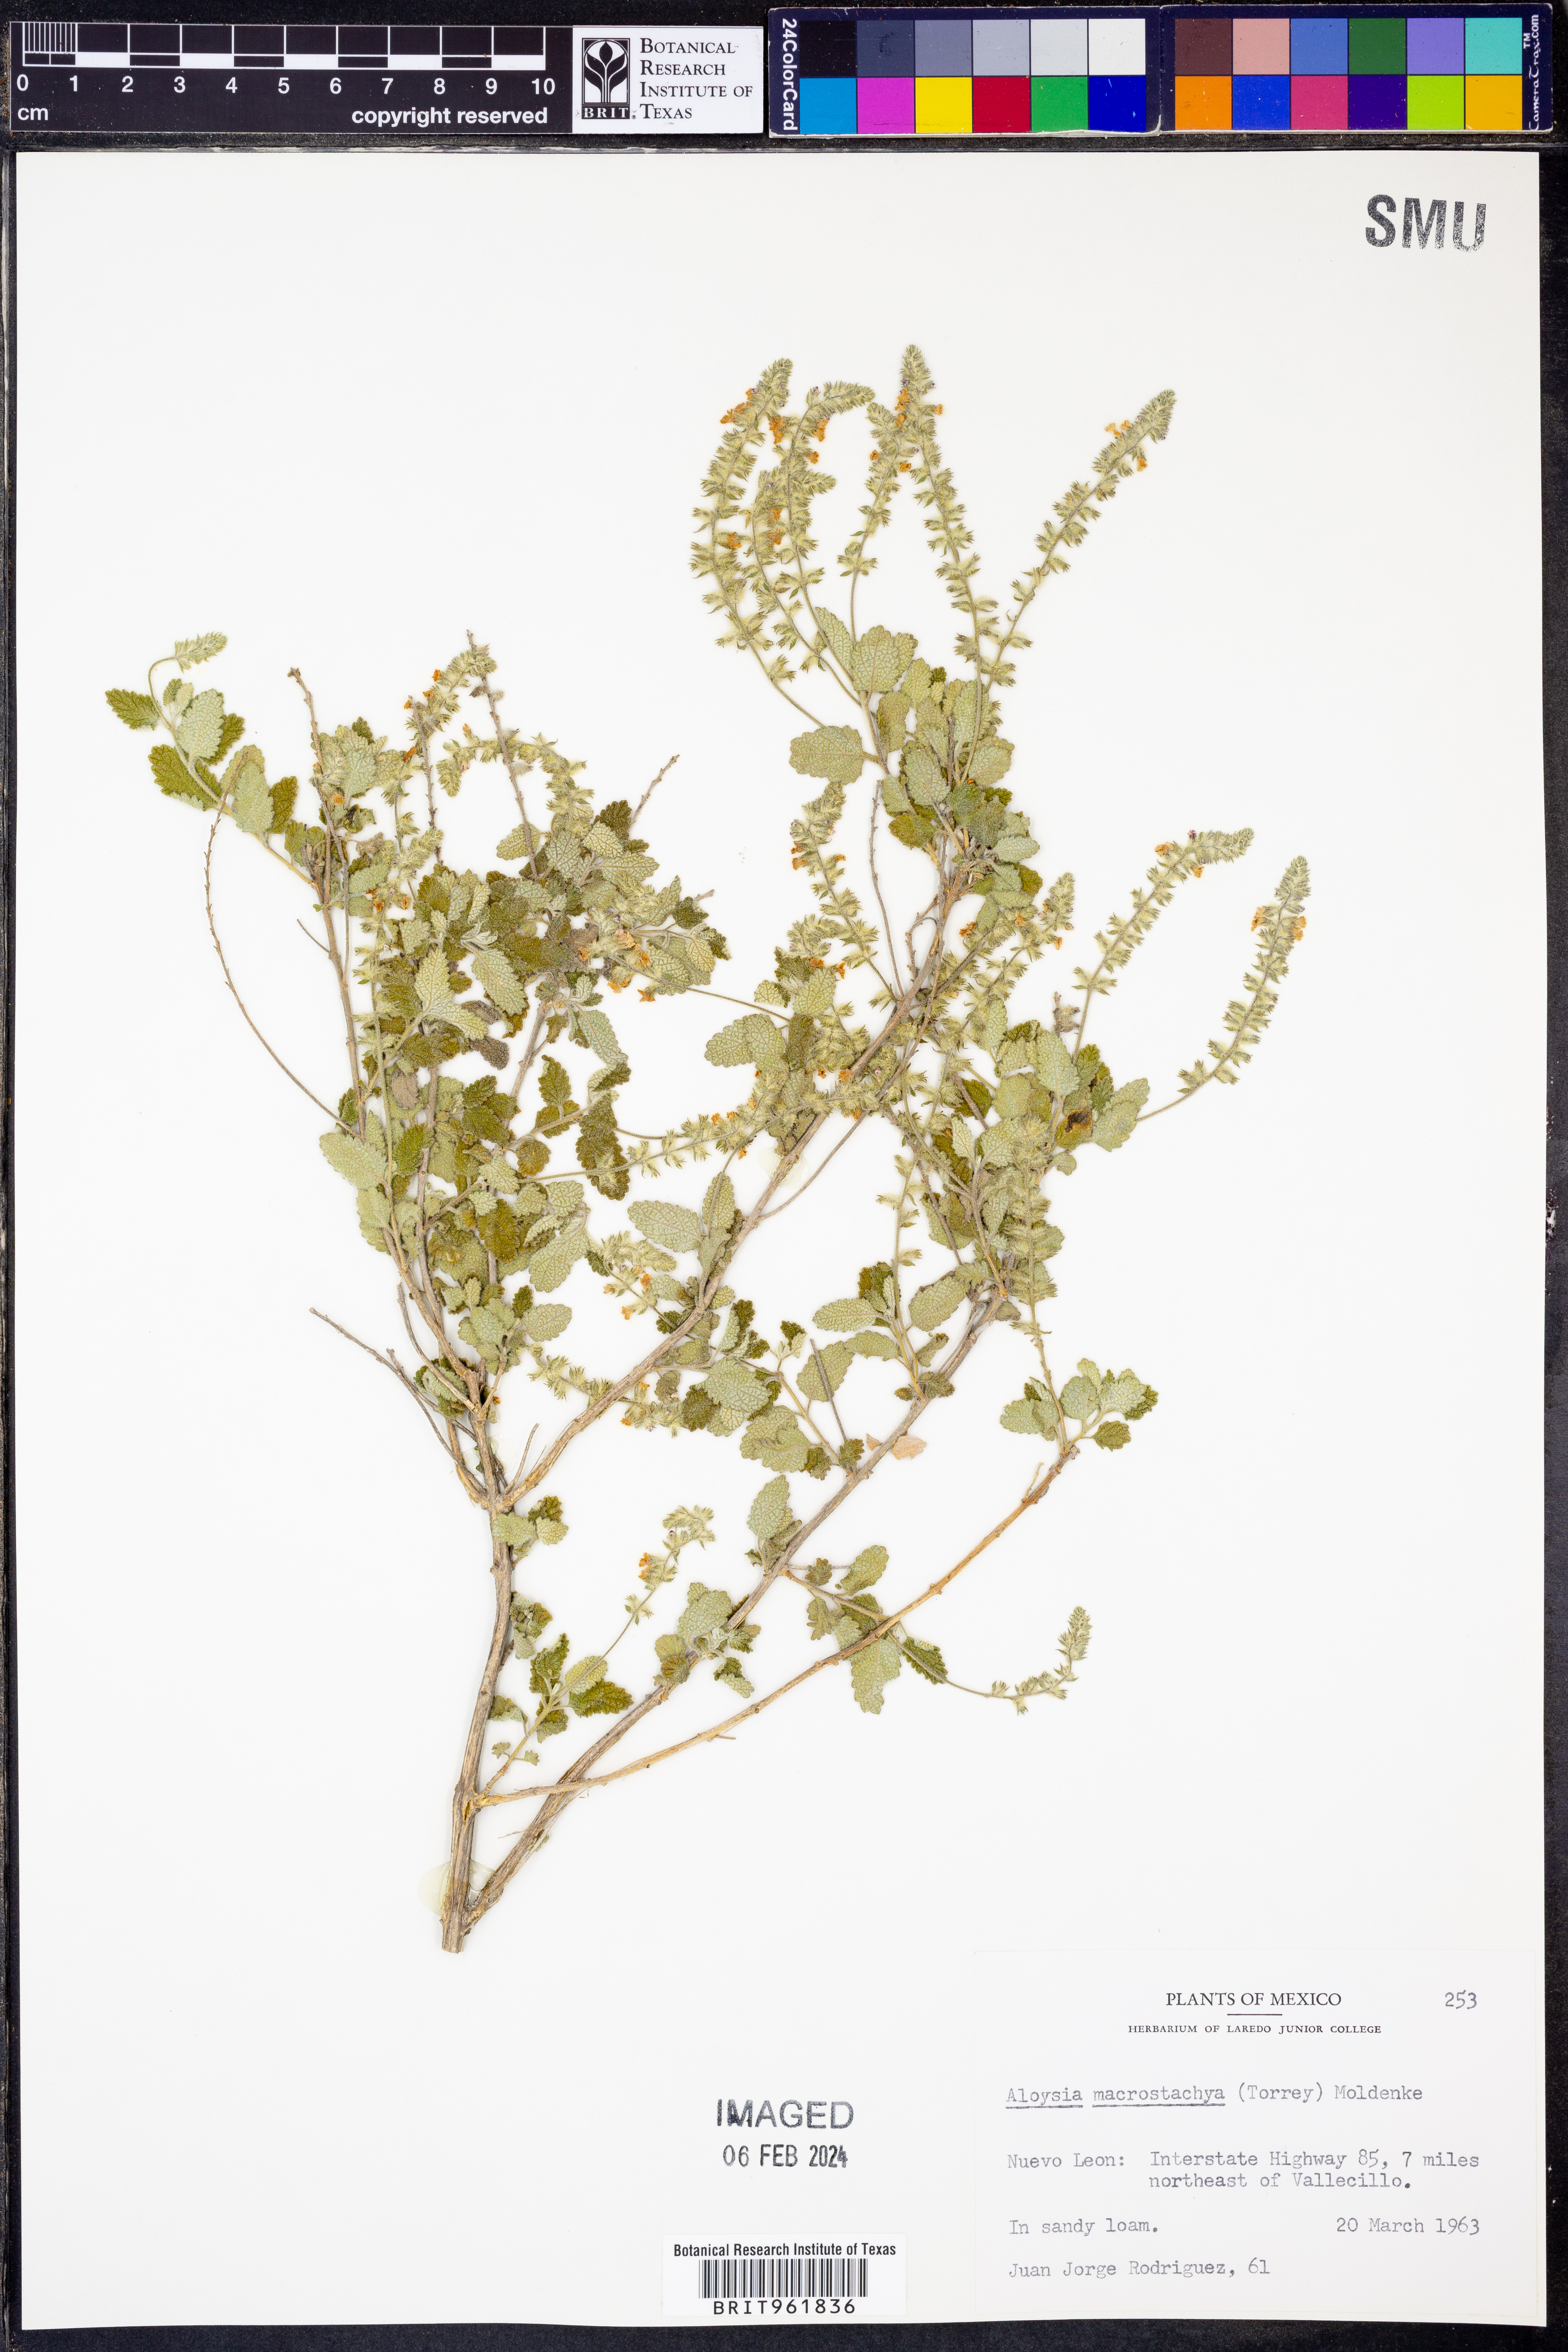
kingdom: Plantae
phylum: Tracheophyta
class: Magnoliopsida
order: Lamiales
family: Verbenaceae
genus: Aloysia
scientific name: Aloysia
